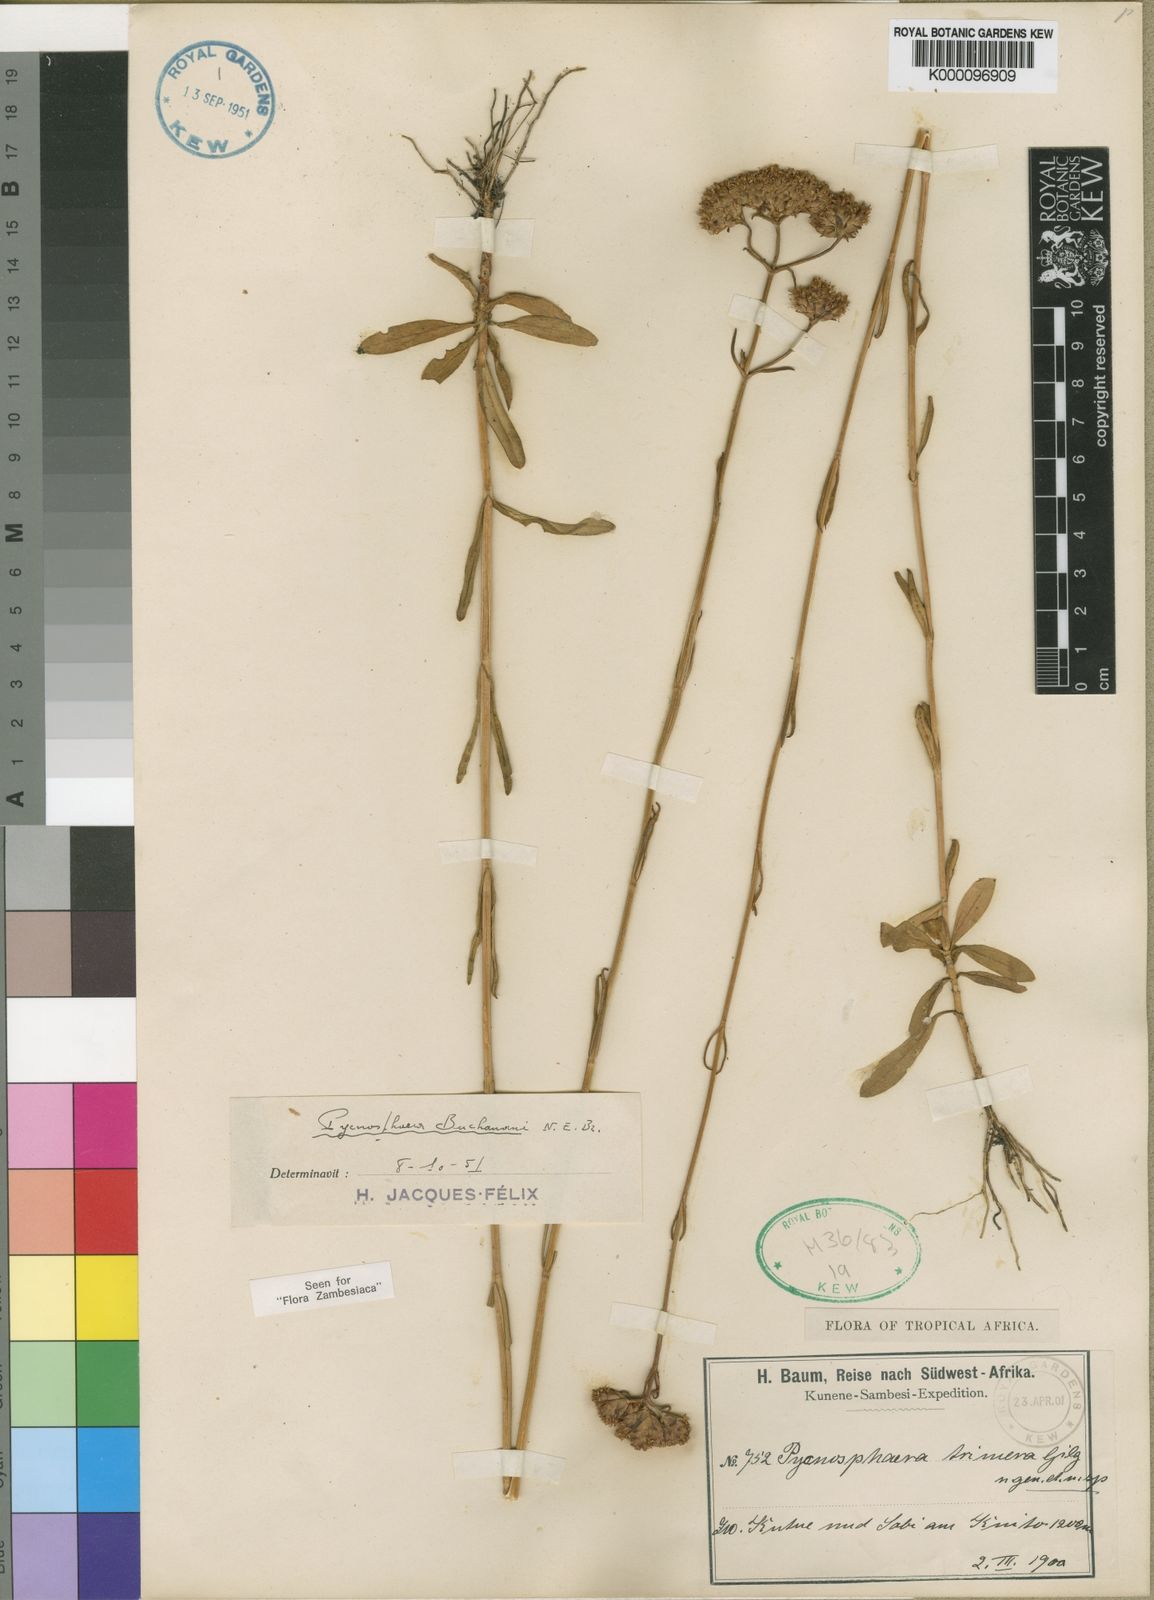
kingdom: Plantae
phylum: Tracheophyta
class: Magnoliopsida
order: Gentianales
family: Gentianaceae
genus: Pycnosphaera
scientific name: Pycnosphaera buchananii
